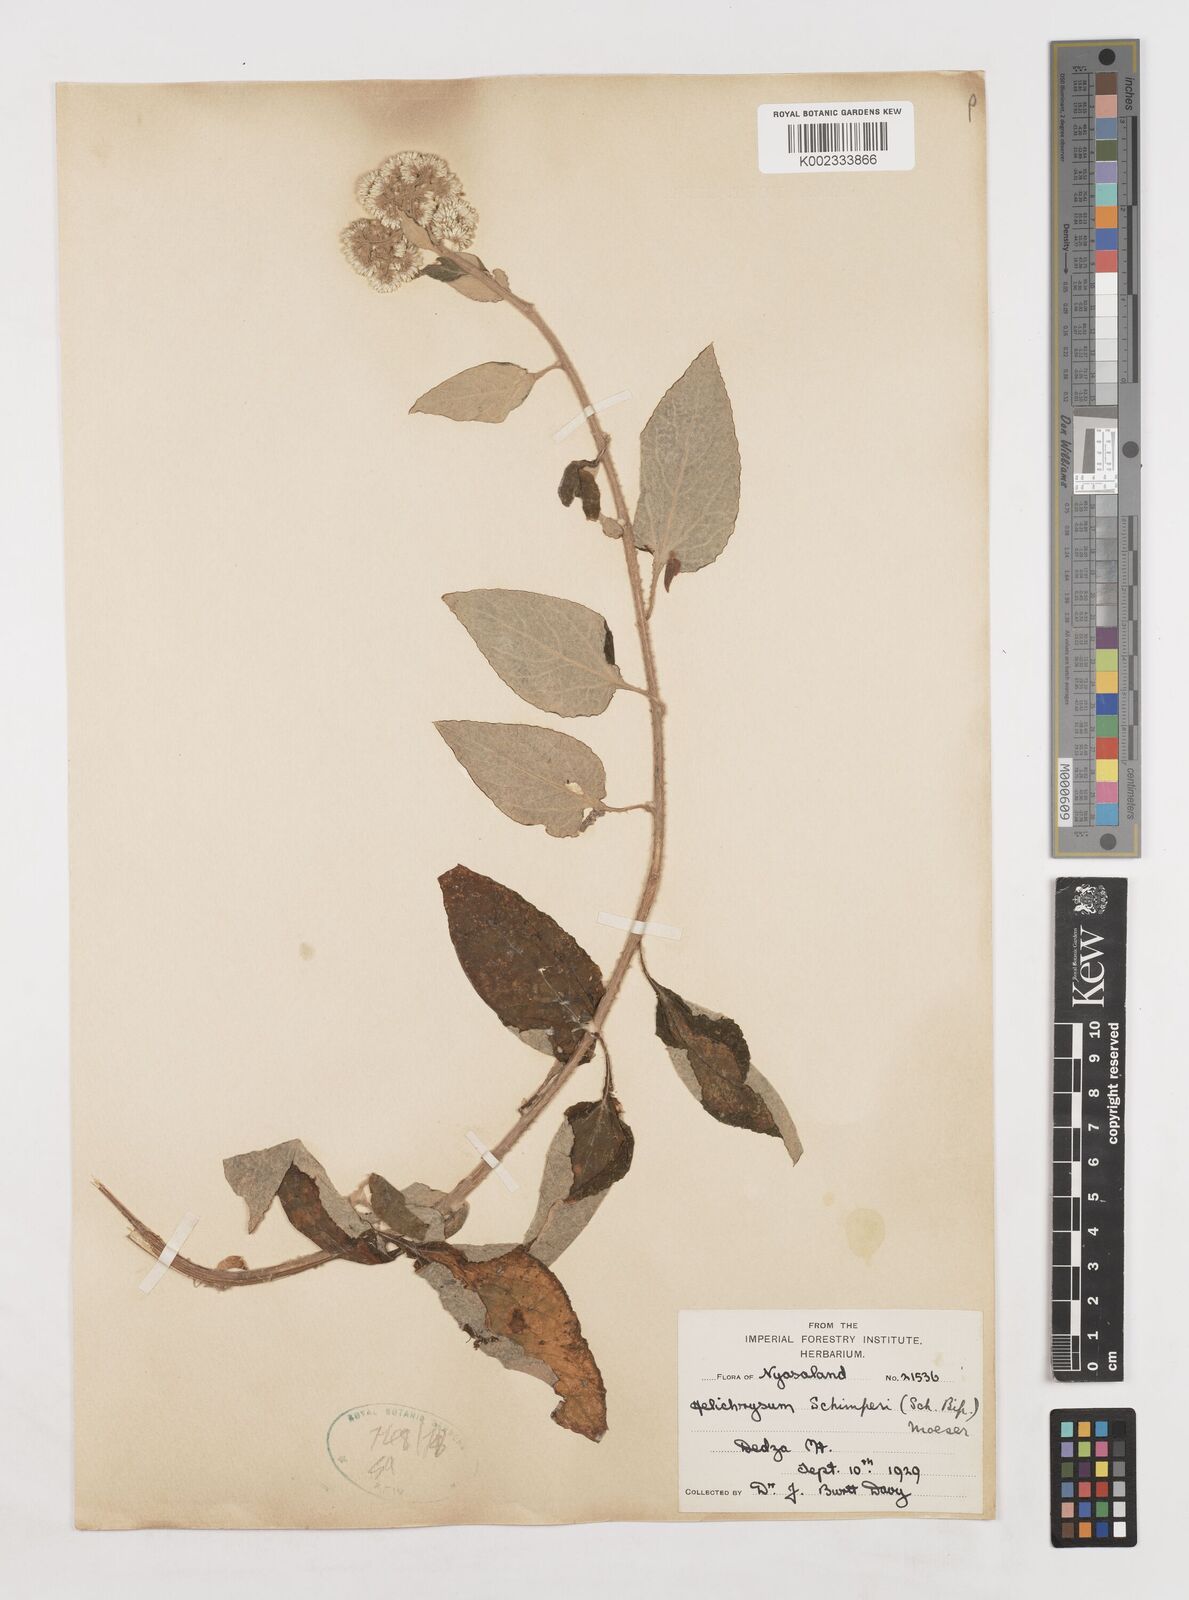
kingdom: Plantae
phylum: Tracheophyta
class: Magnoliopsida
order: Asterales
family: Asteraceae
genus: Helichrysum
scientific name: Helichrysum schimperi
